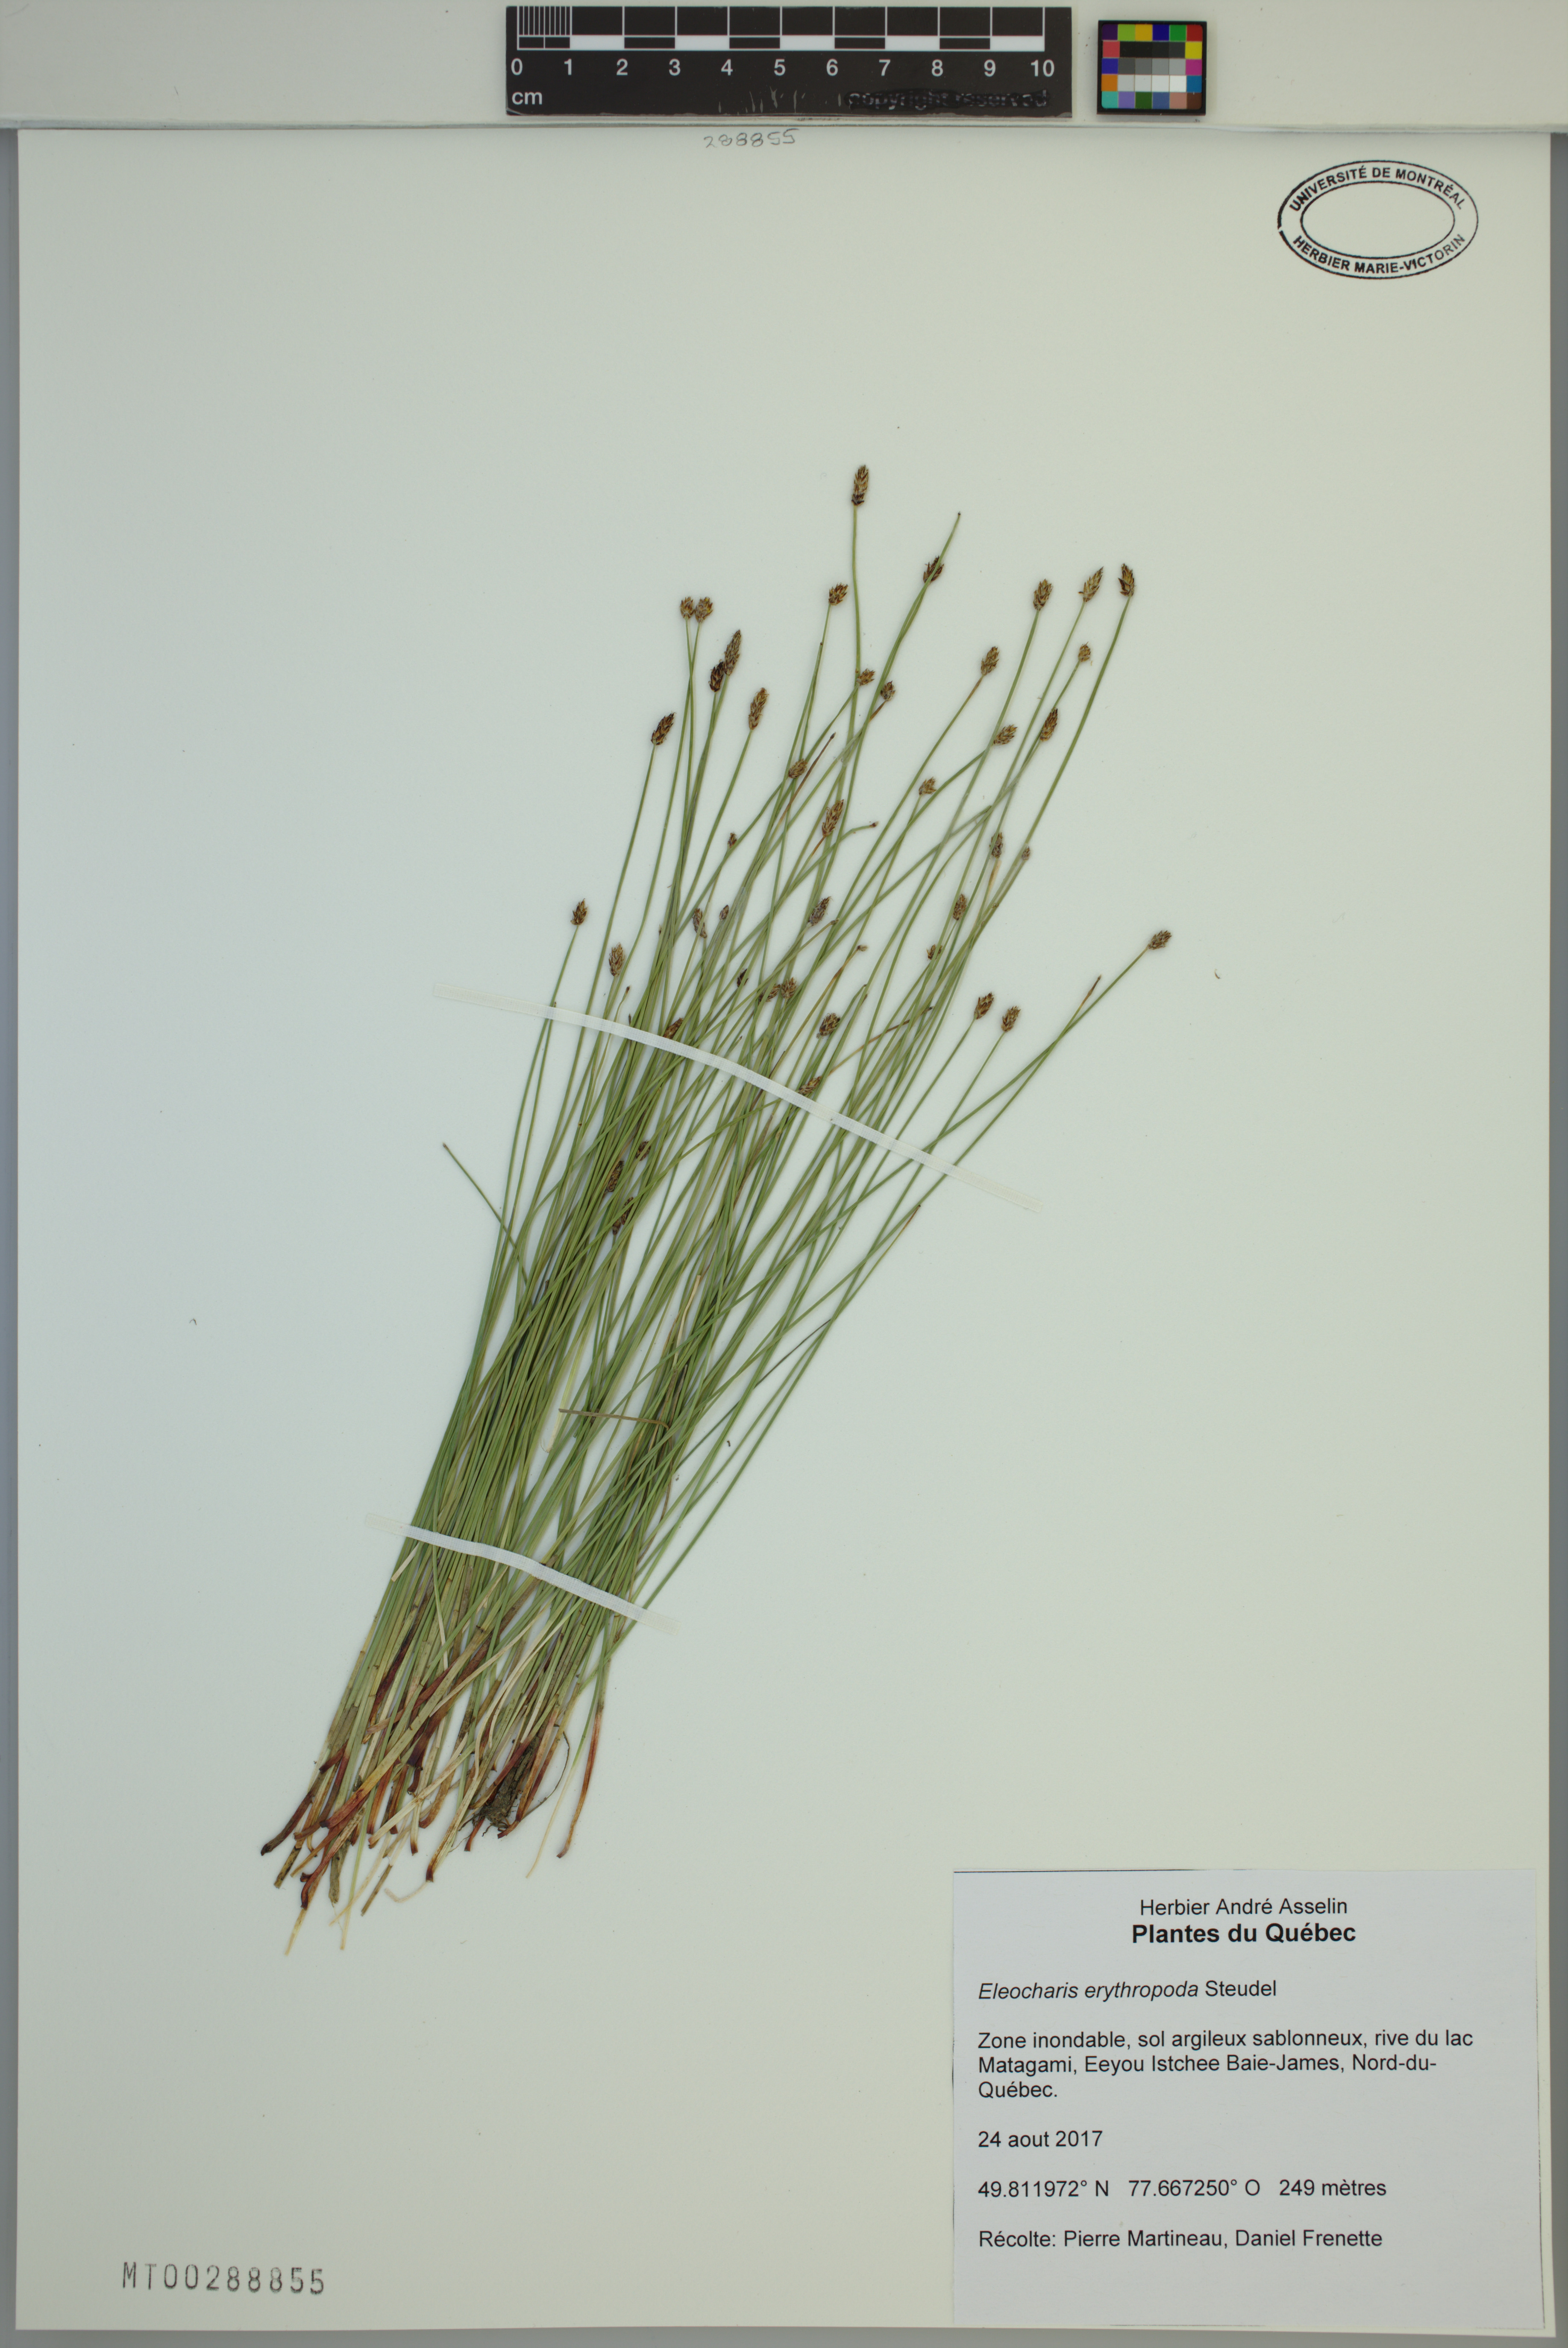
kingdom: Plantae
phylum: Tracheophyta
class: Liliopsida
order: Poales
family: Cyperaceae
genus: Eleocharis
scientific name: Eleocharis erythropoda
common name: Bald spikerush
